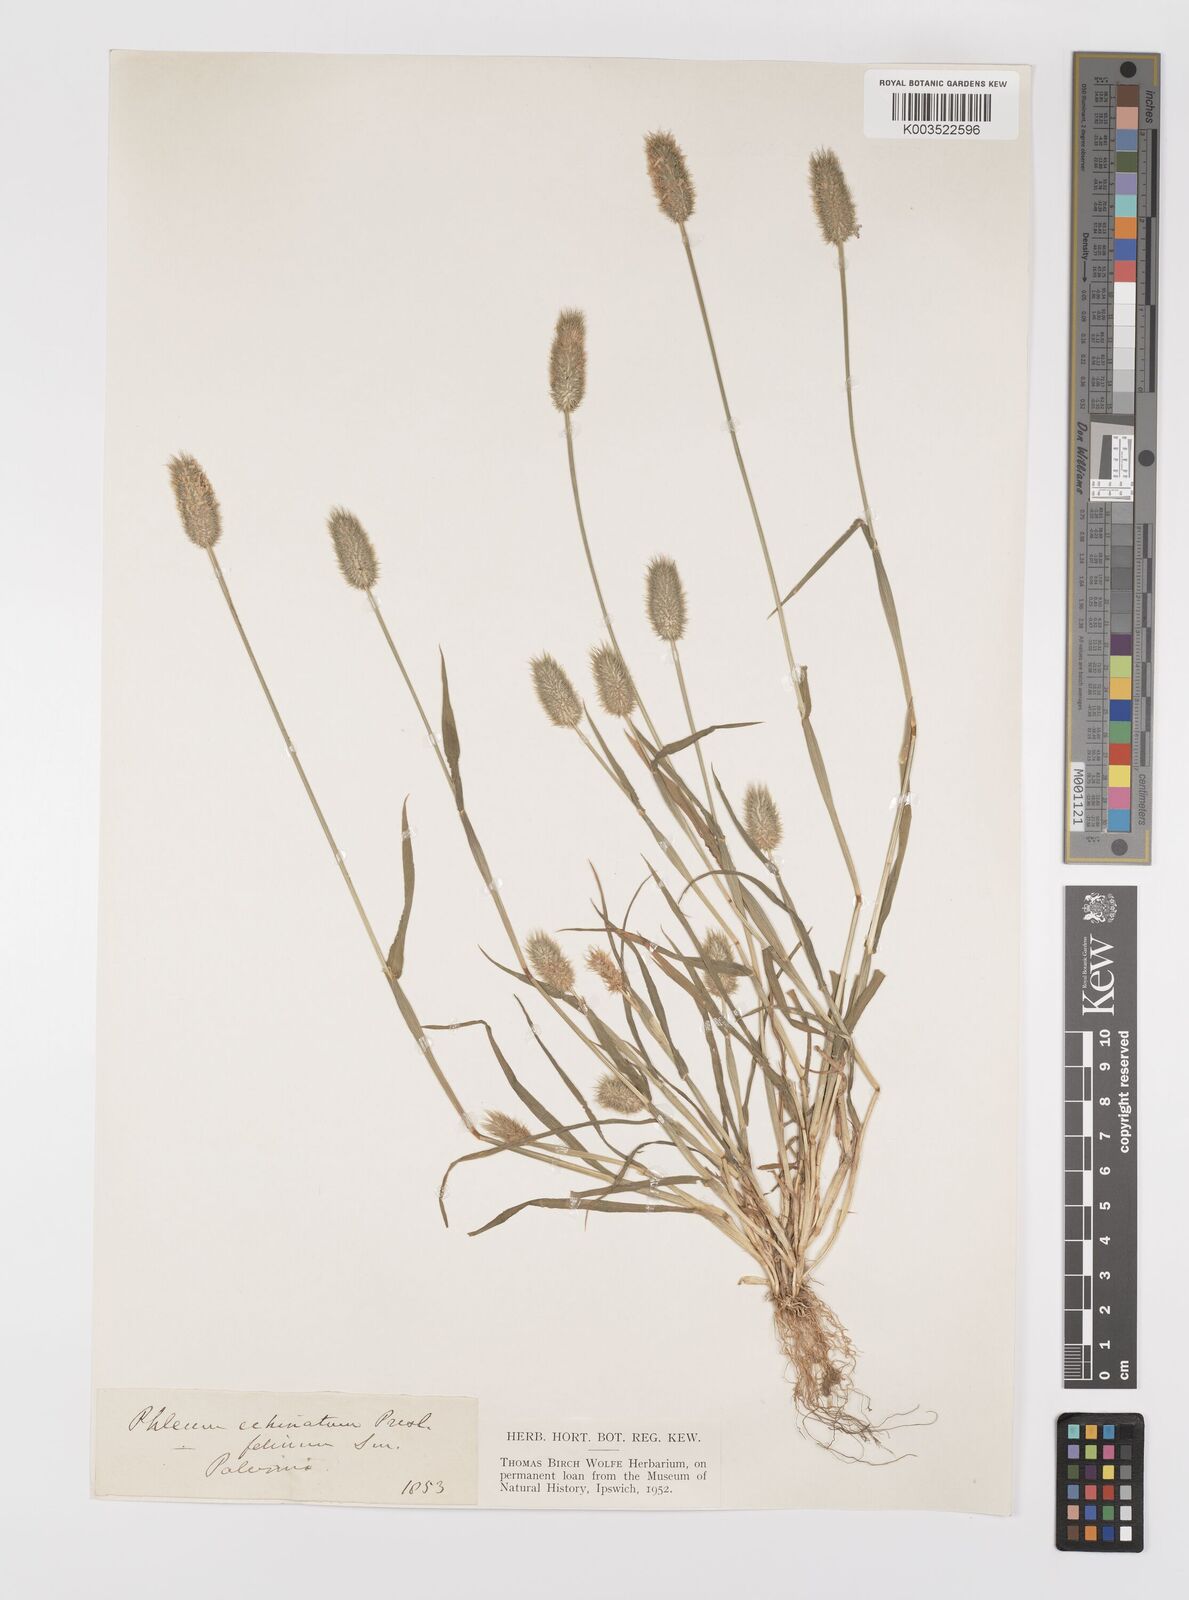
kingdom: Plantae
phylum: Tracheophyta
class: Liliopsida
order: Poales
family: Poaceae
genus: Phleum
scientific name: Phleum echinatum
